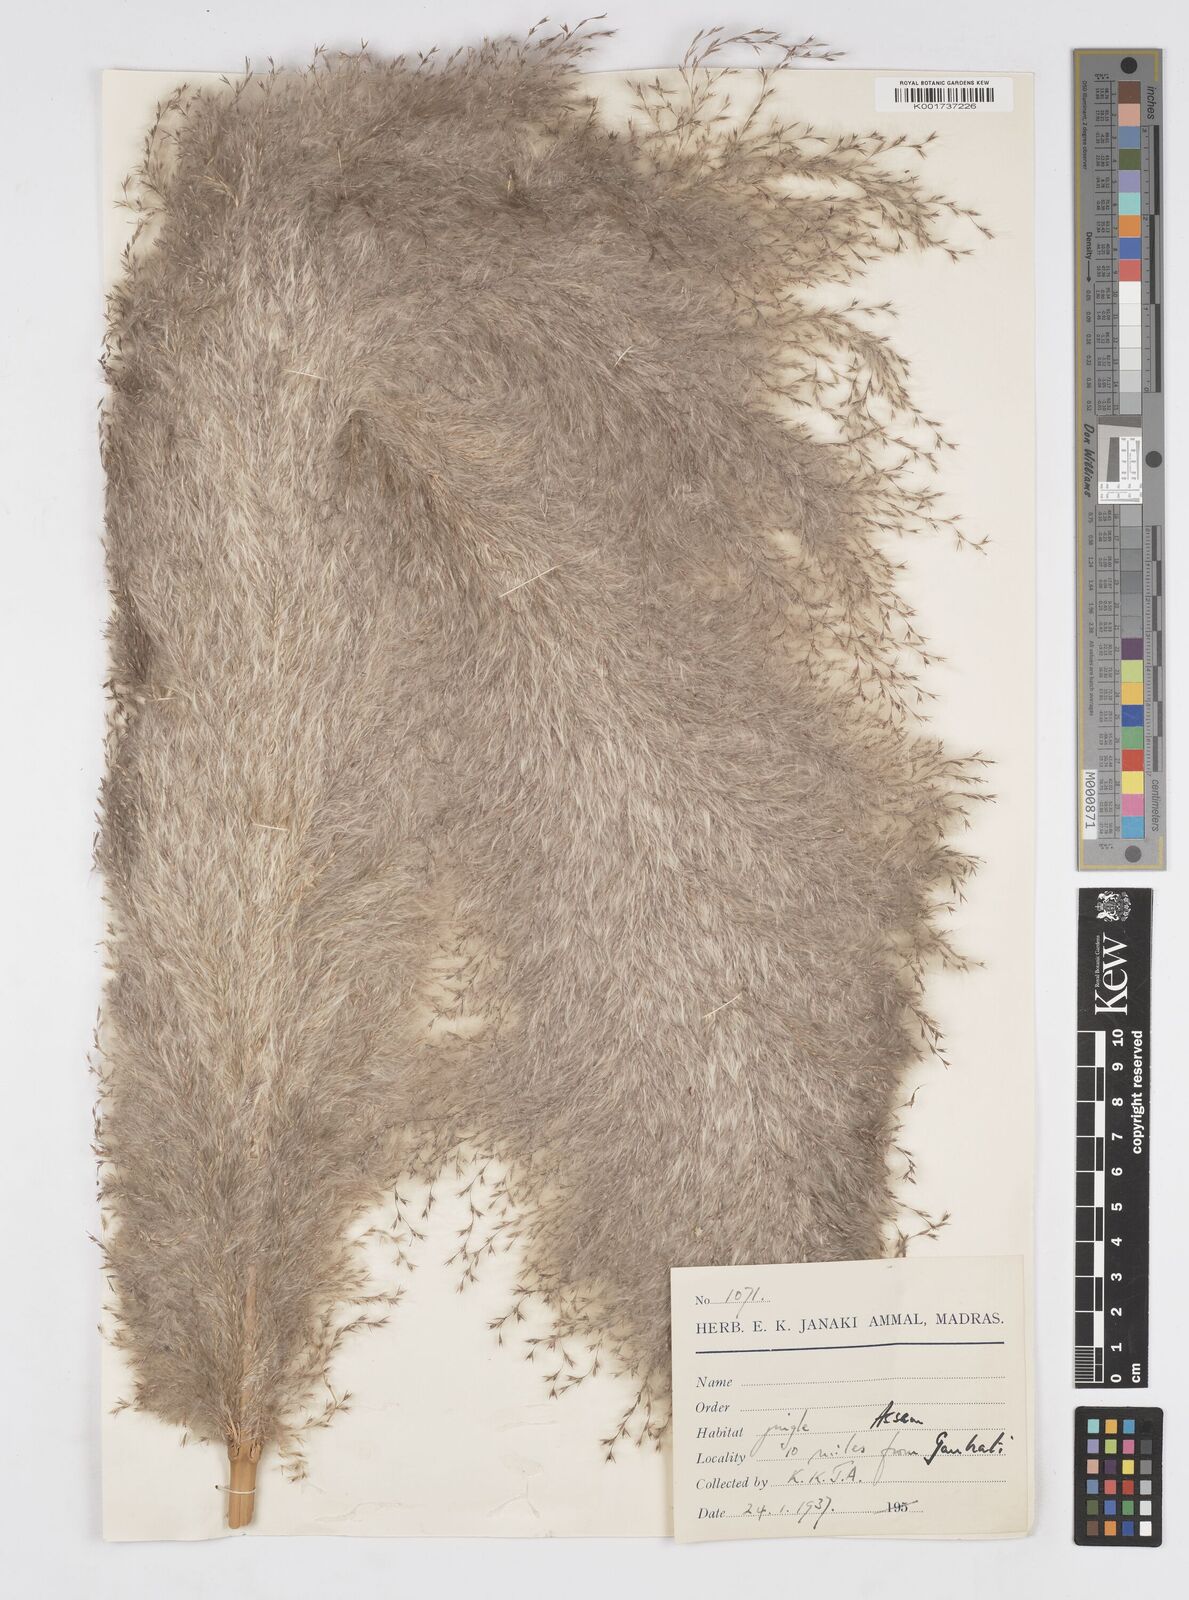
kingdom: Plantae
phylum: Tracheophyta
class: Liliopsida
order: Poales
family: Poaceae
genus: Tripidium
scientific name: Tripidium procerum
